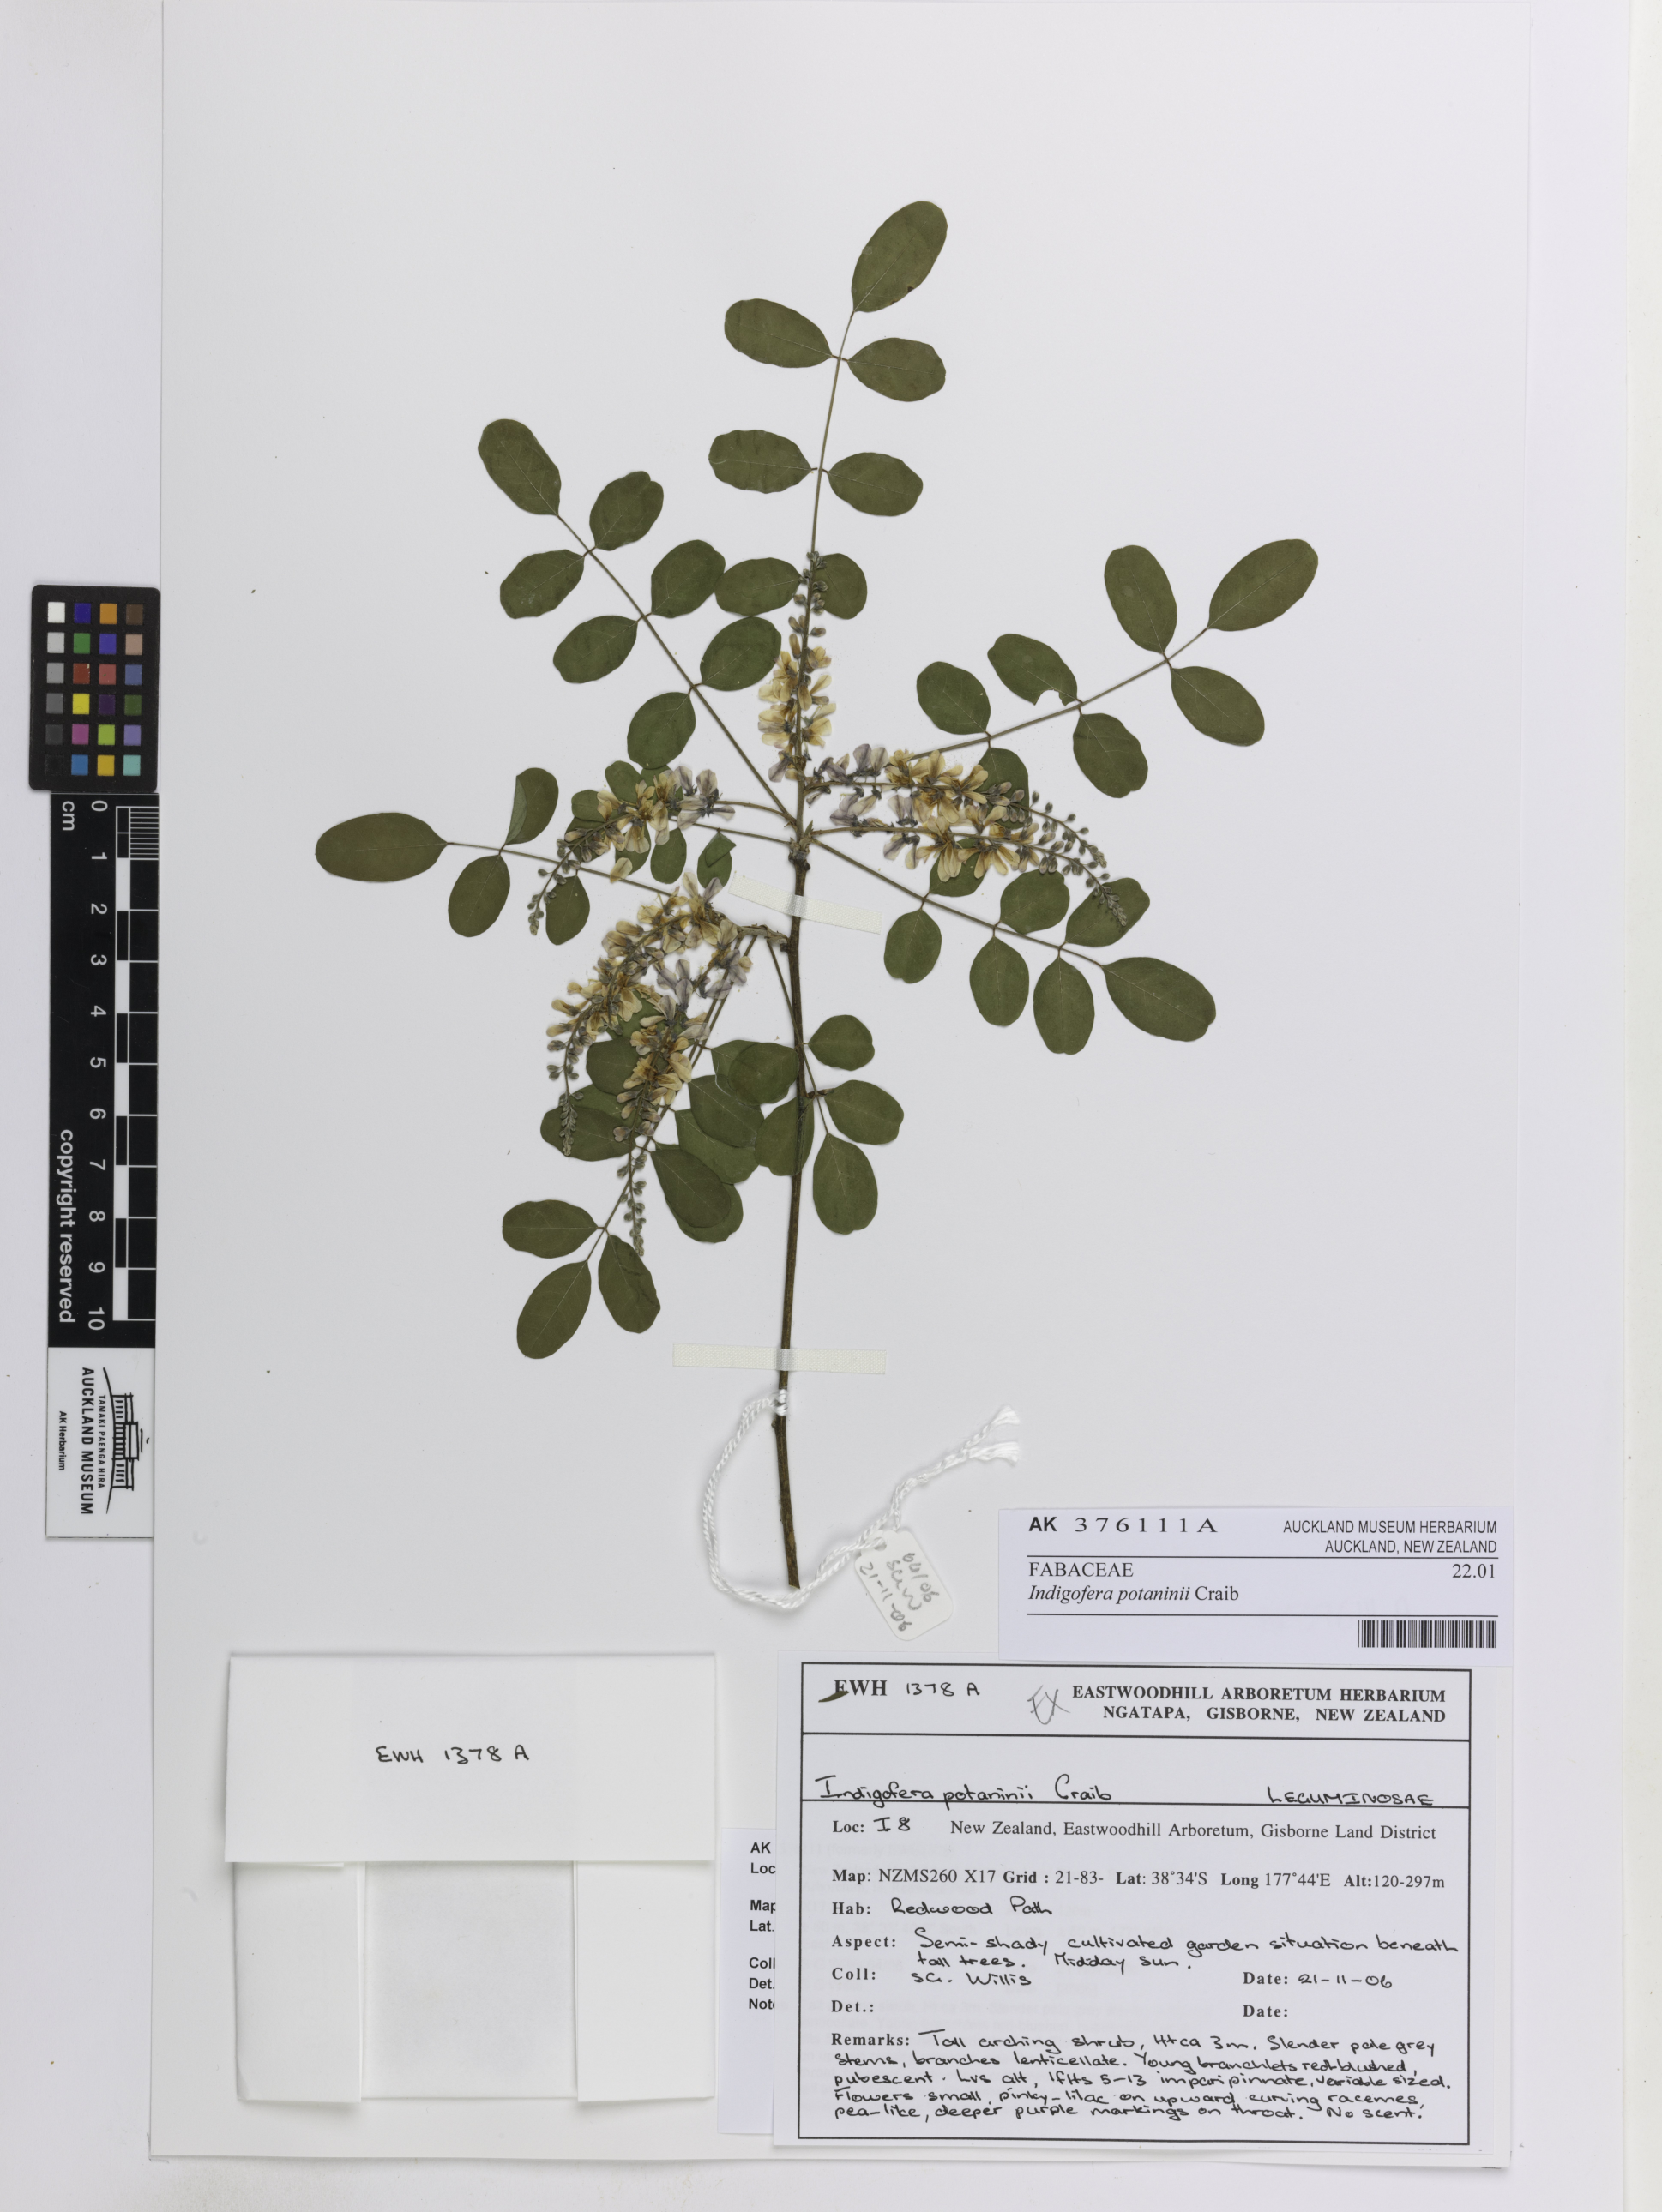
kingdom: Plantae
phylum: Tracheophyta
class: Magnoliopsida
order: Fabales
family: Fabaceae
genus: Indigofera
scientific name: Indigofera szechuensis
